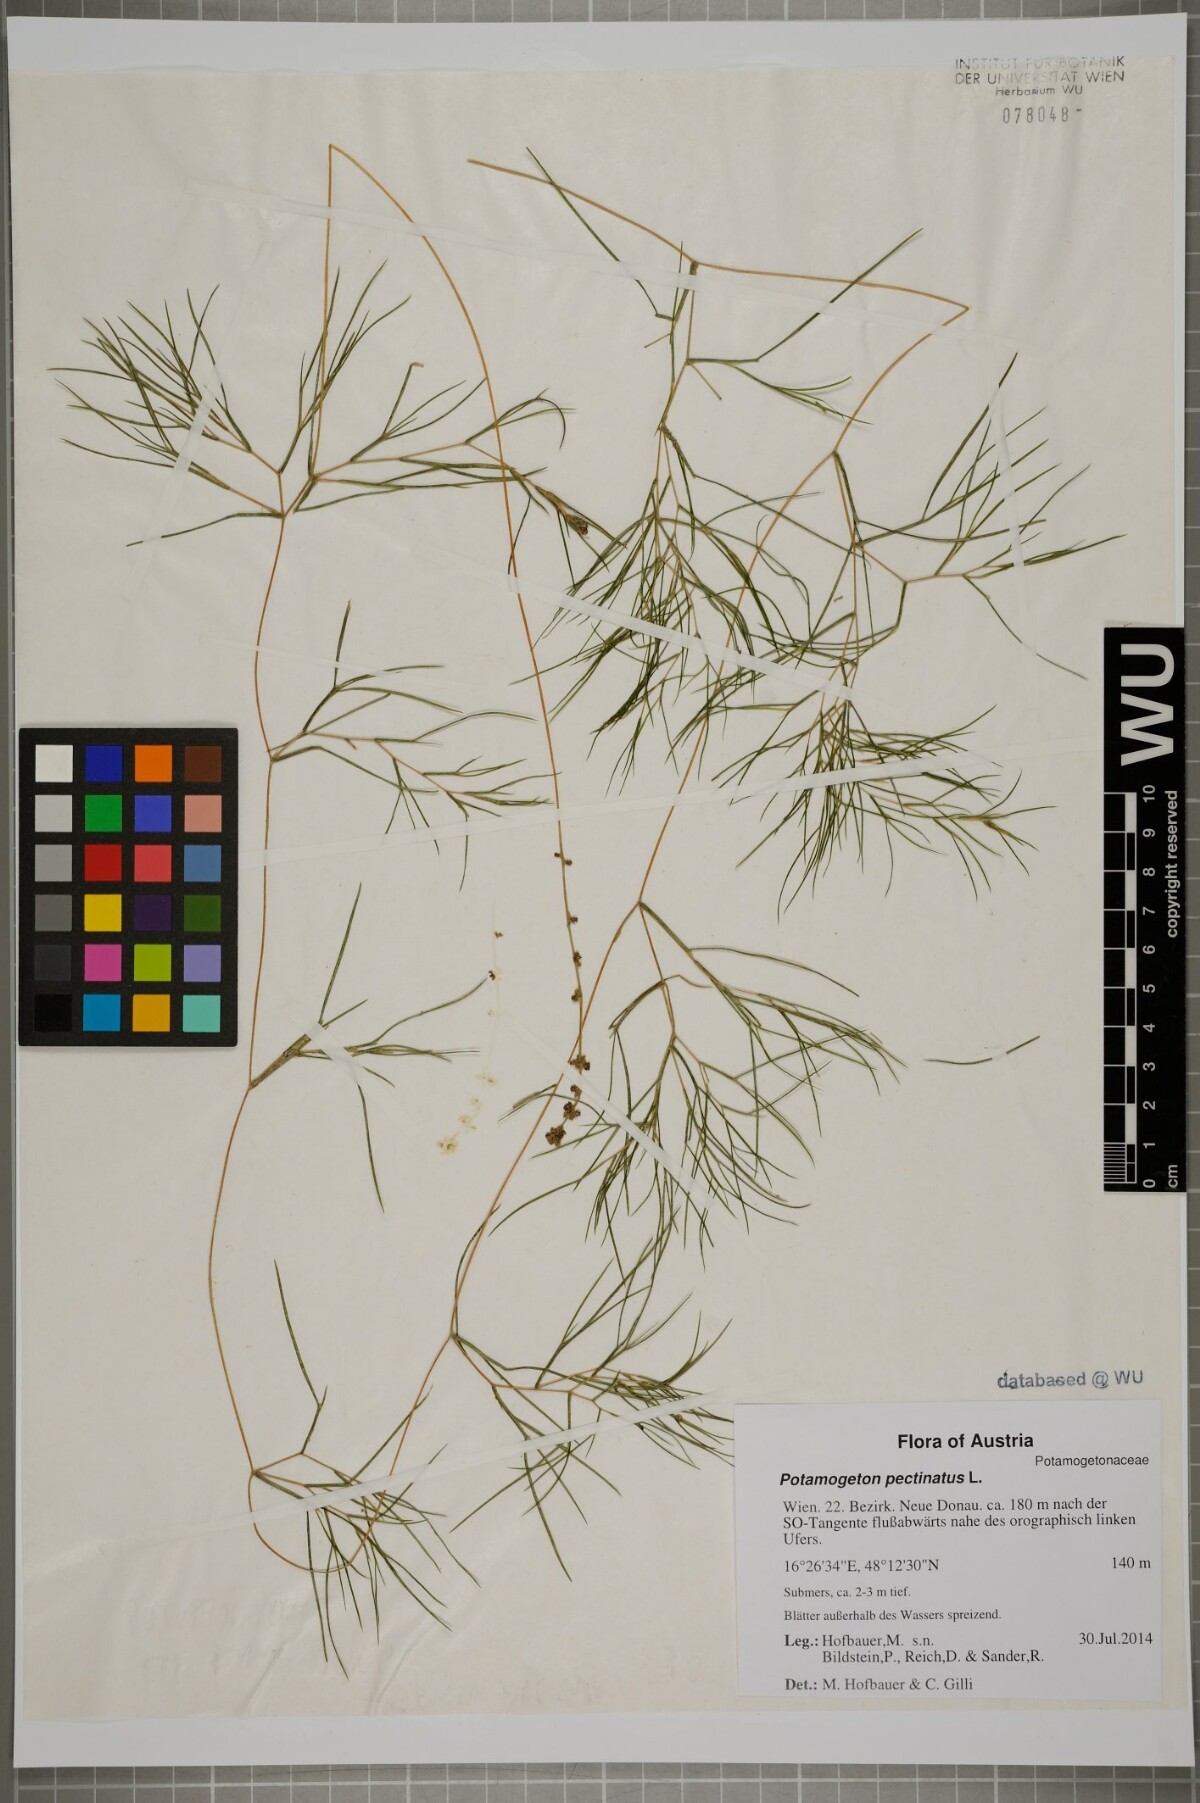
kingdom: Plantae
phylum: Tracheophyta
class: Liliopsida
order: Alismatales
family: Potamogetonaceae
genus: Stuckenia
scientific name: Stuckenia pectinata
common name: Sago pondweed
